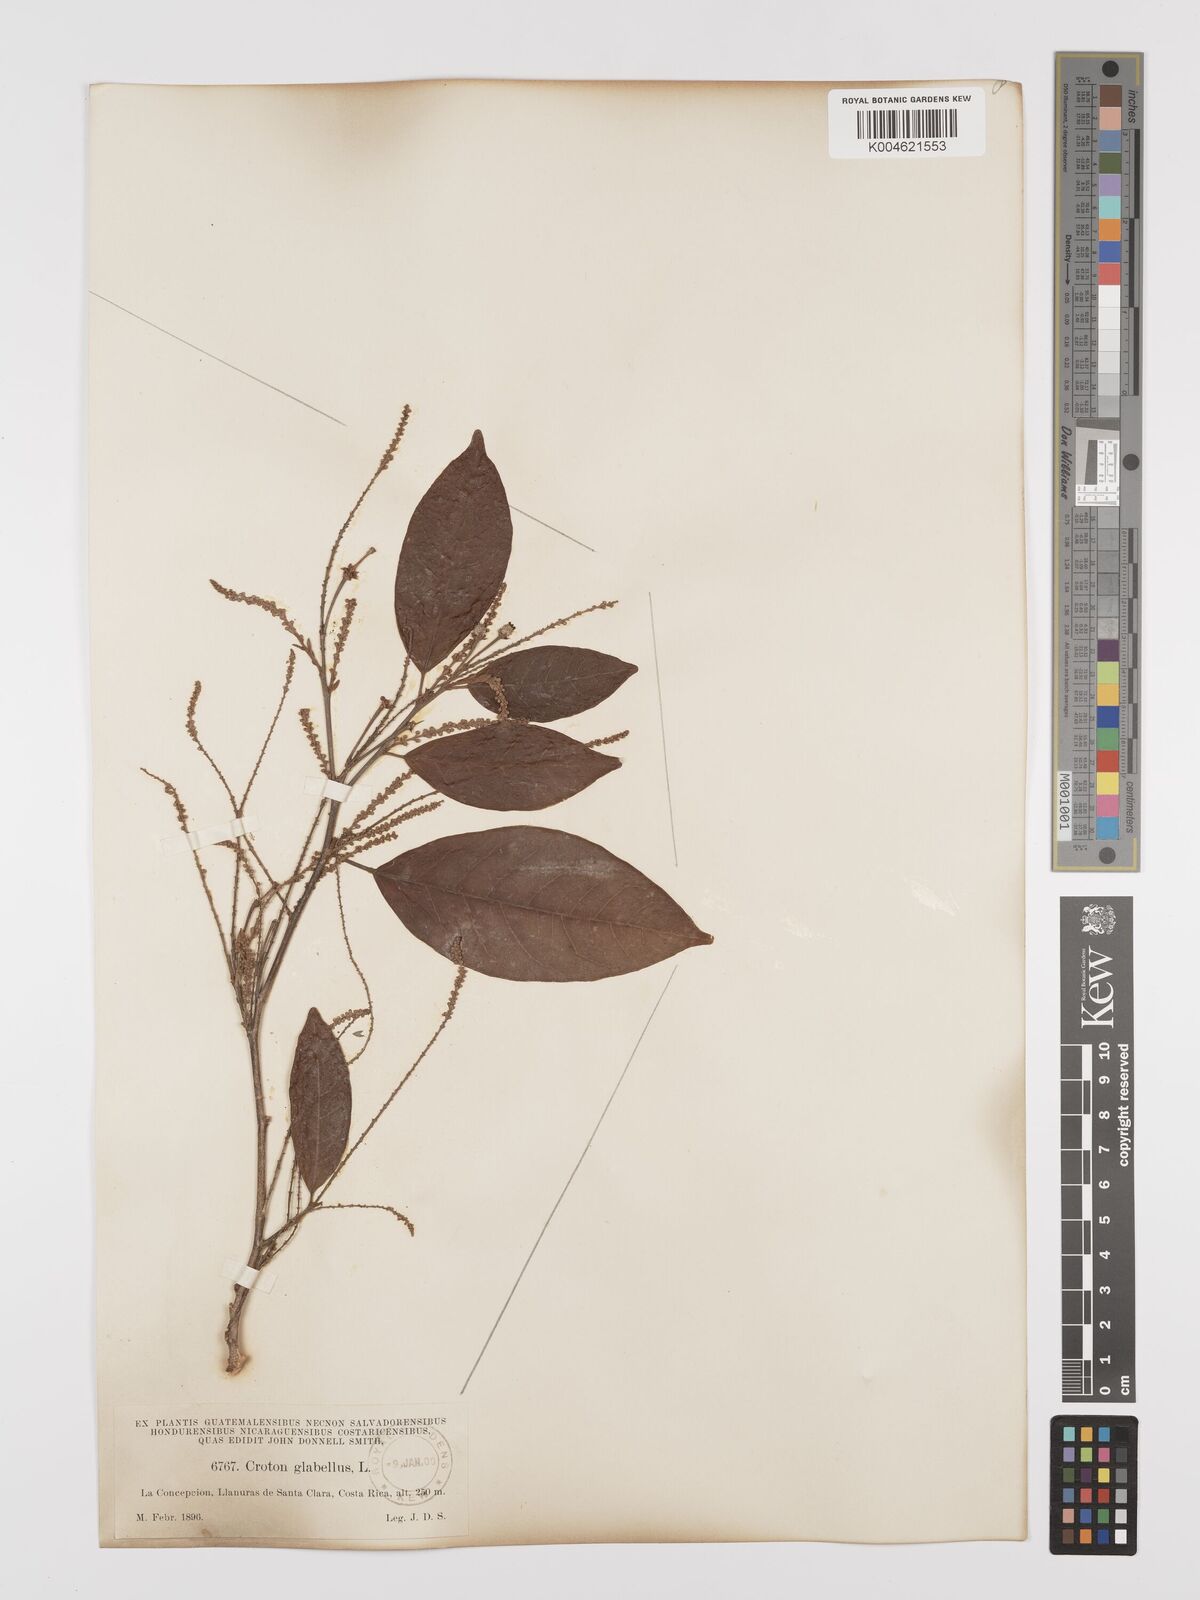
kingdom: Plantae
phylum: Tracheophyta
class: Magnoliopsida
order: Malpighiales
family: Euphorbiaceae
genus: Croton
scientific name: Croton glabellus
